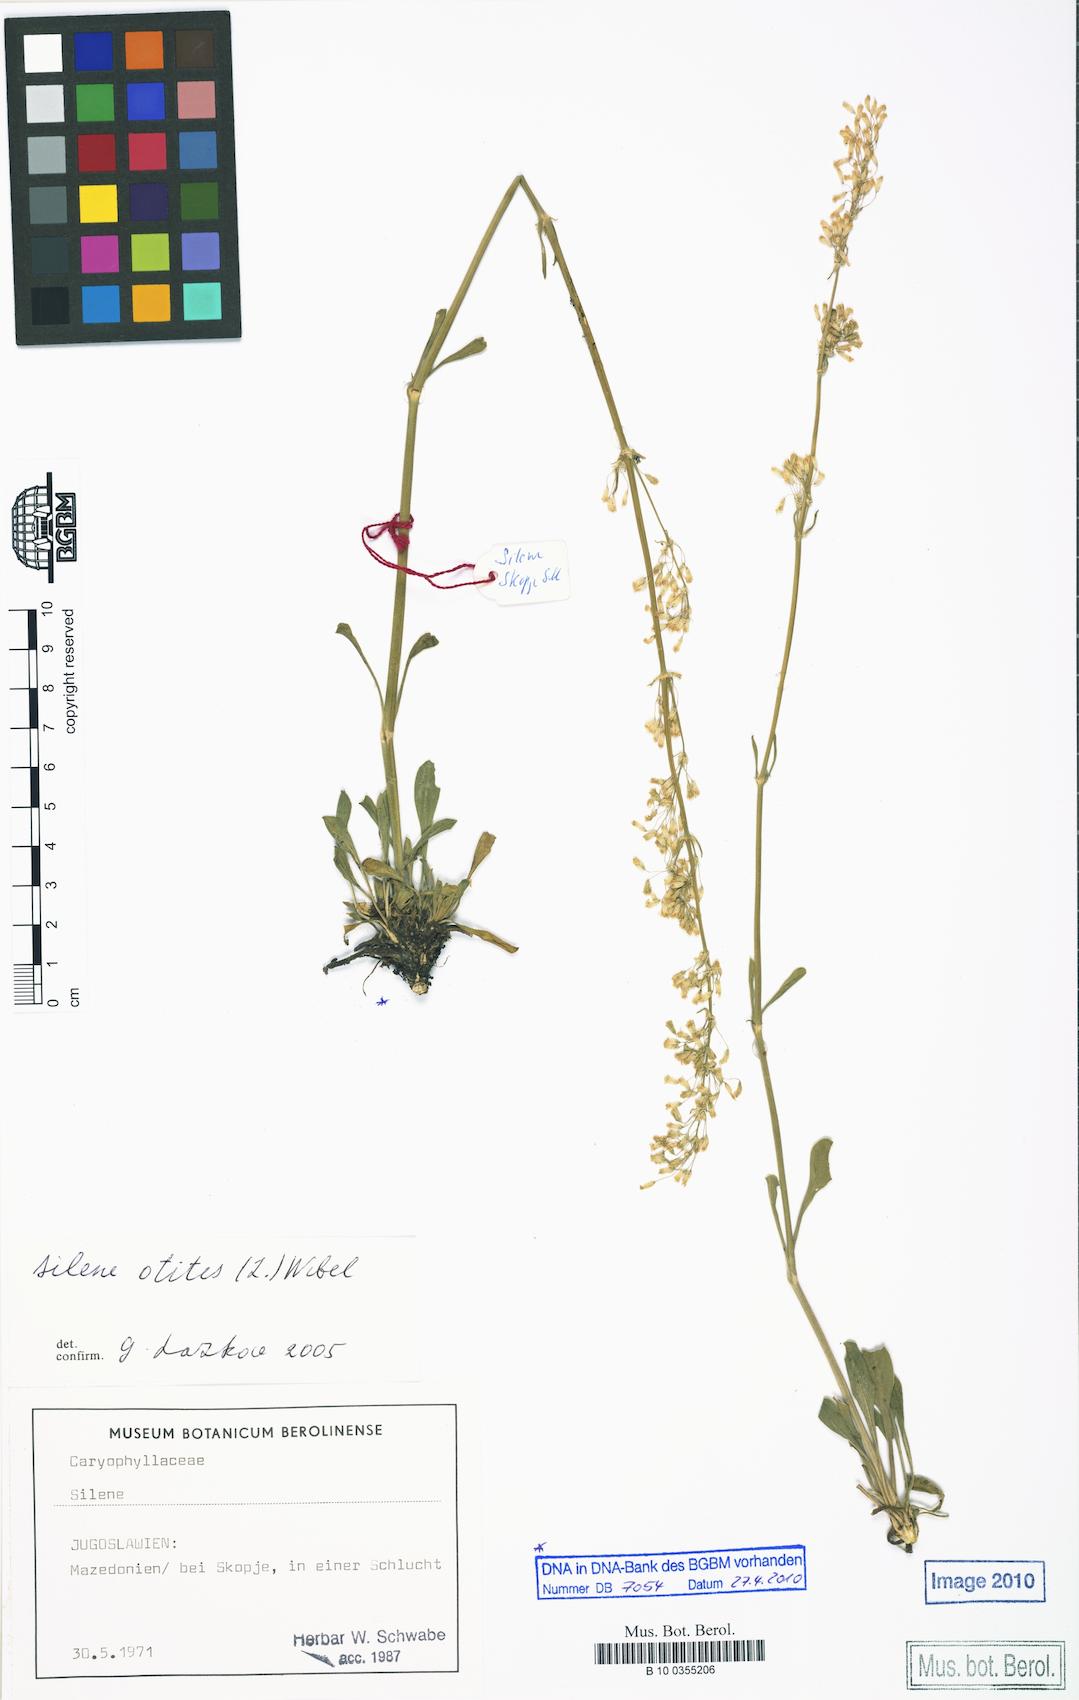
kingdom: Plantae
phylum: Tracheophyta
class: Magnoliopsida
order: Caryophyllales
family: Caryophyllaceae
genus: Silene
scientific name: Silene otites
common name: Spanish catchfly
